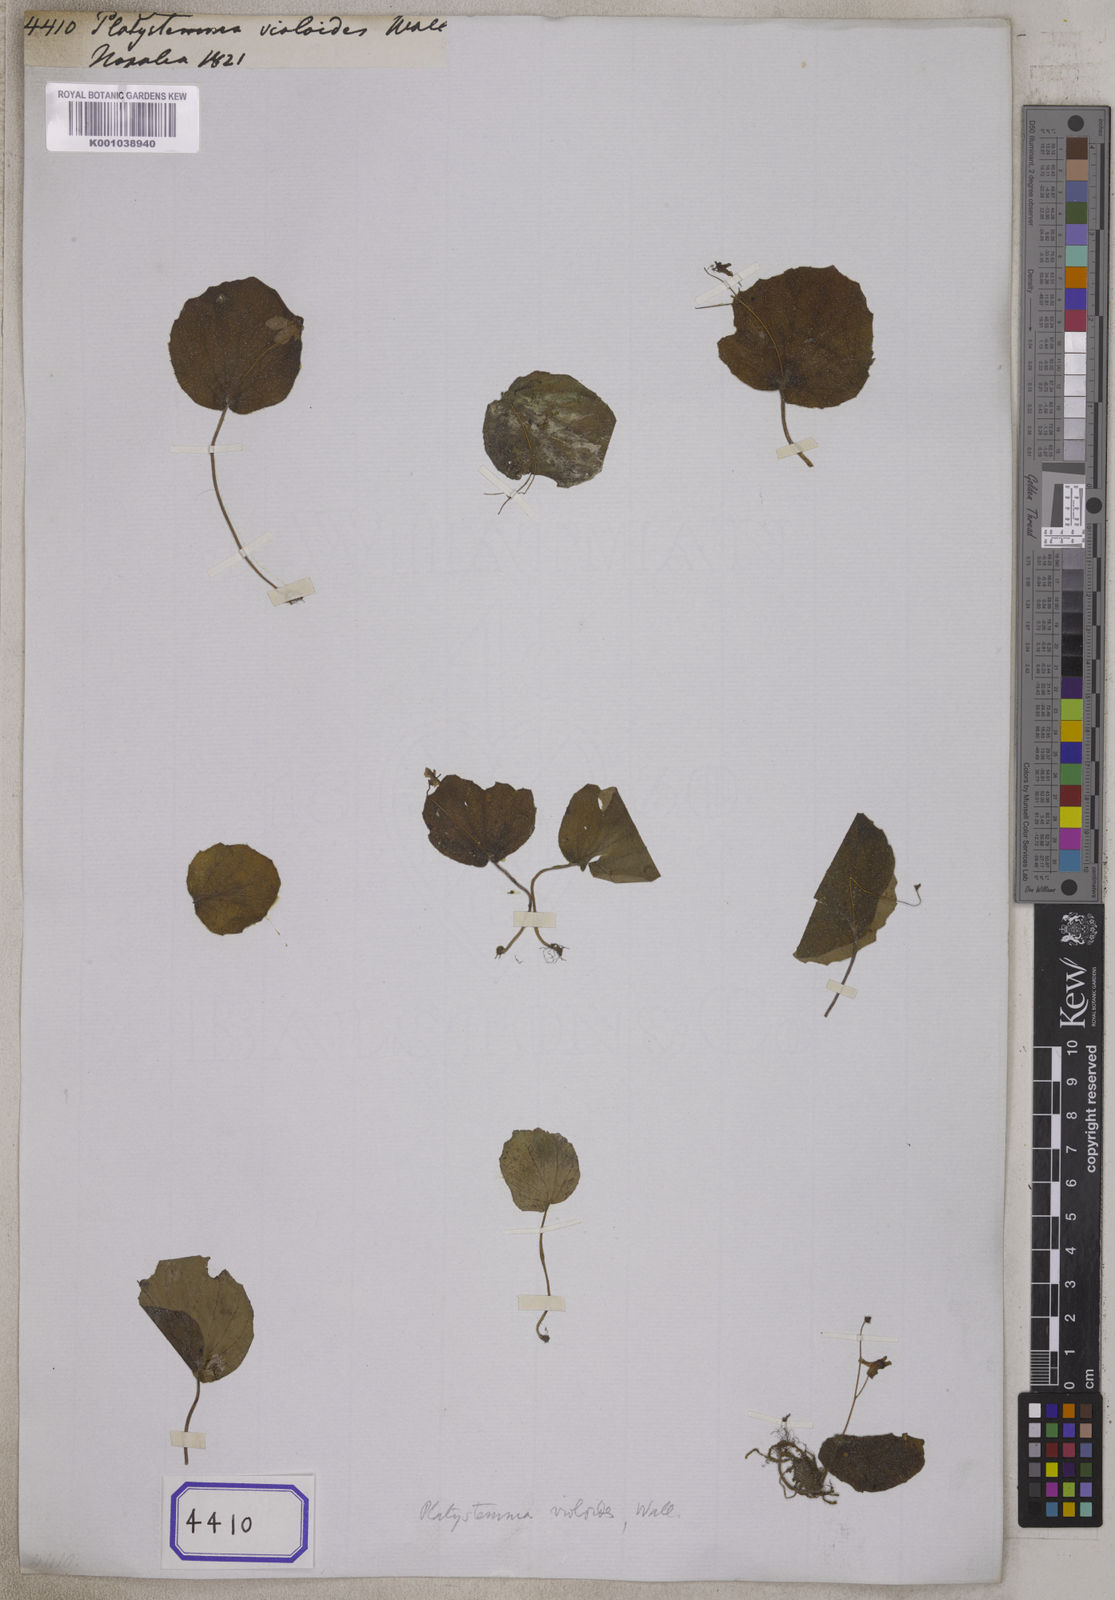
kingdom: Plantae
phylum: Tracheophyta
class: Magnoliopsida
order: Lamiales
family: Gesneriaceae
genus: Platystemma
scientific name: Platystemma violoides
